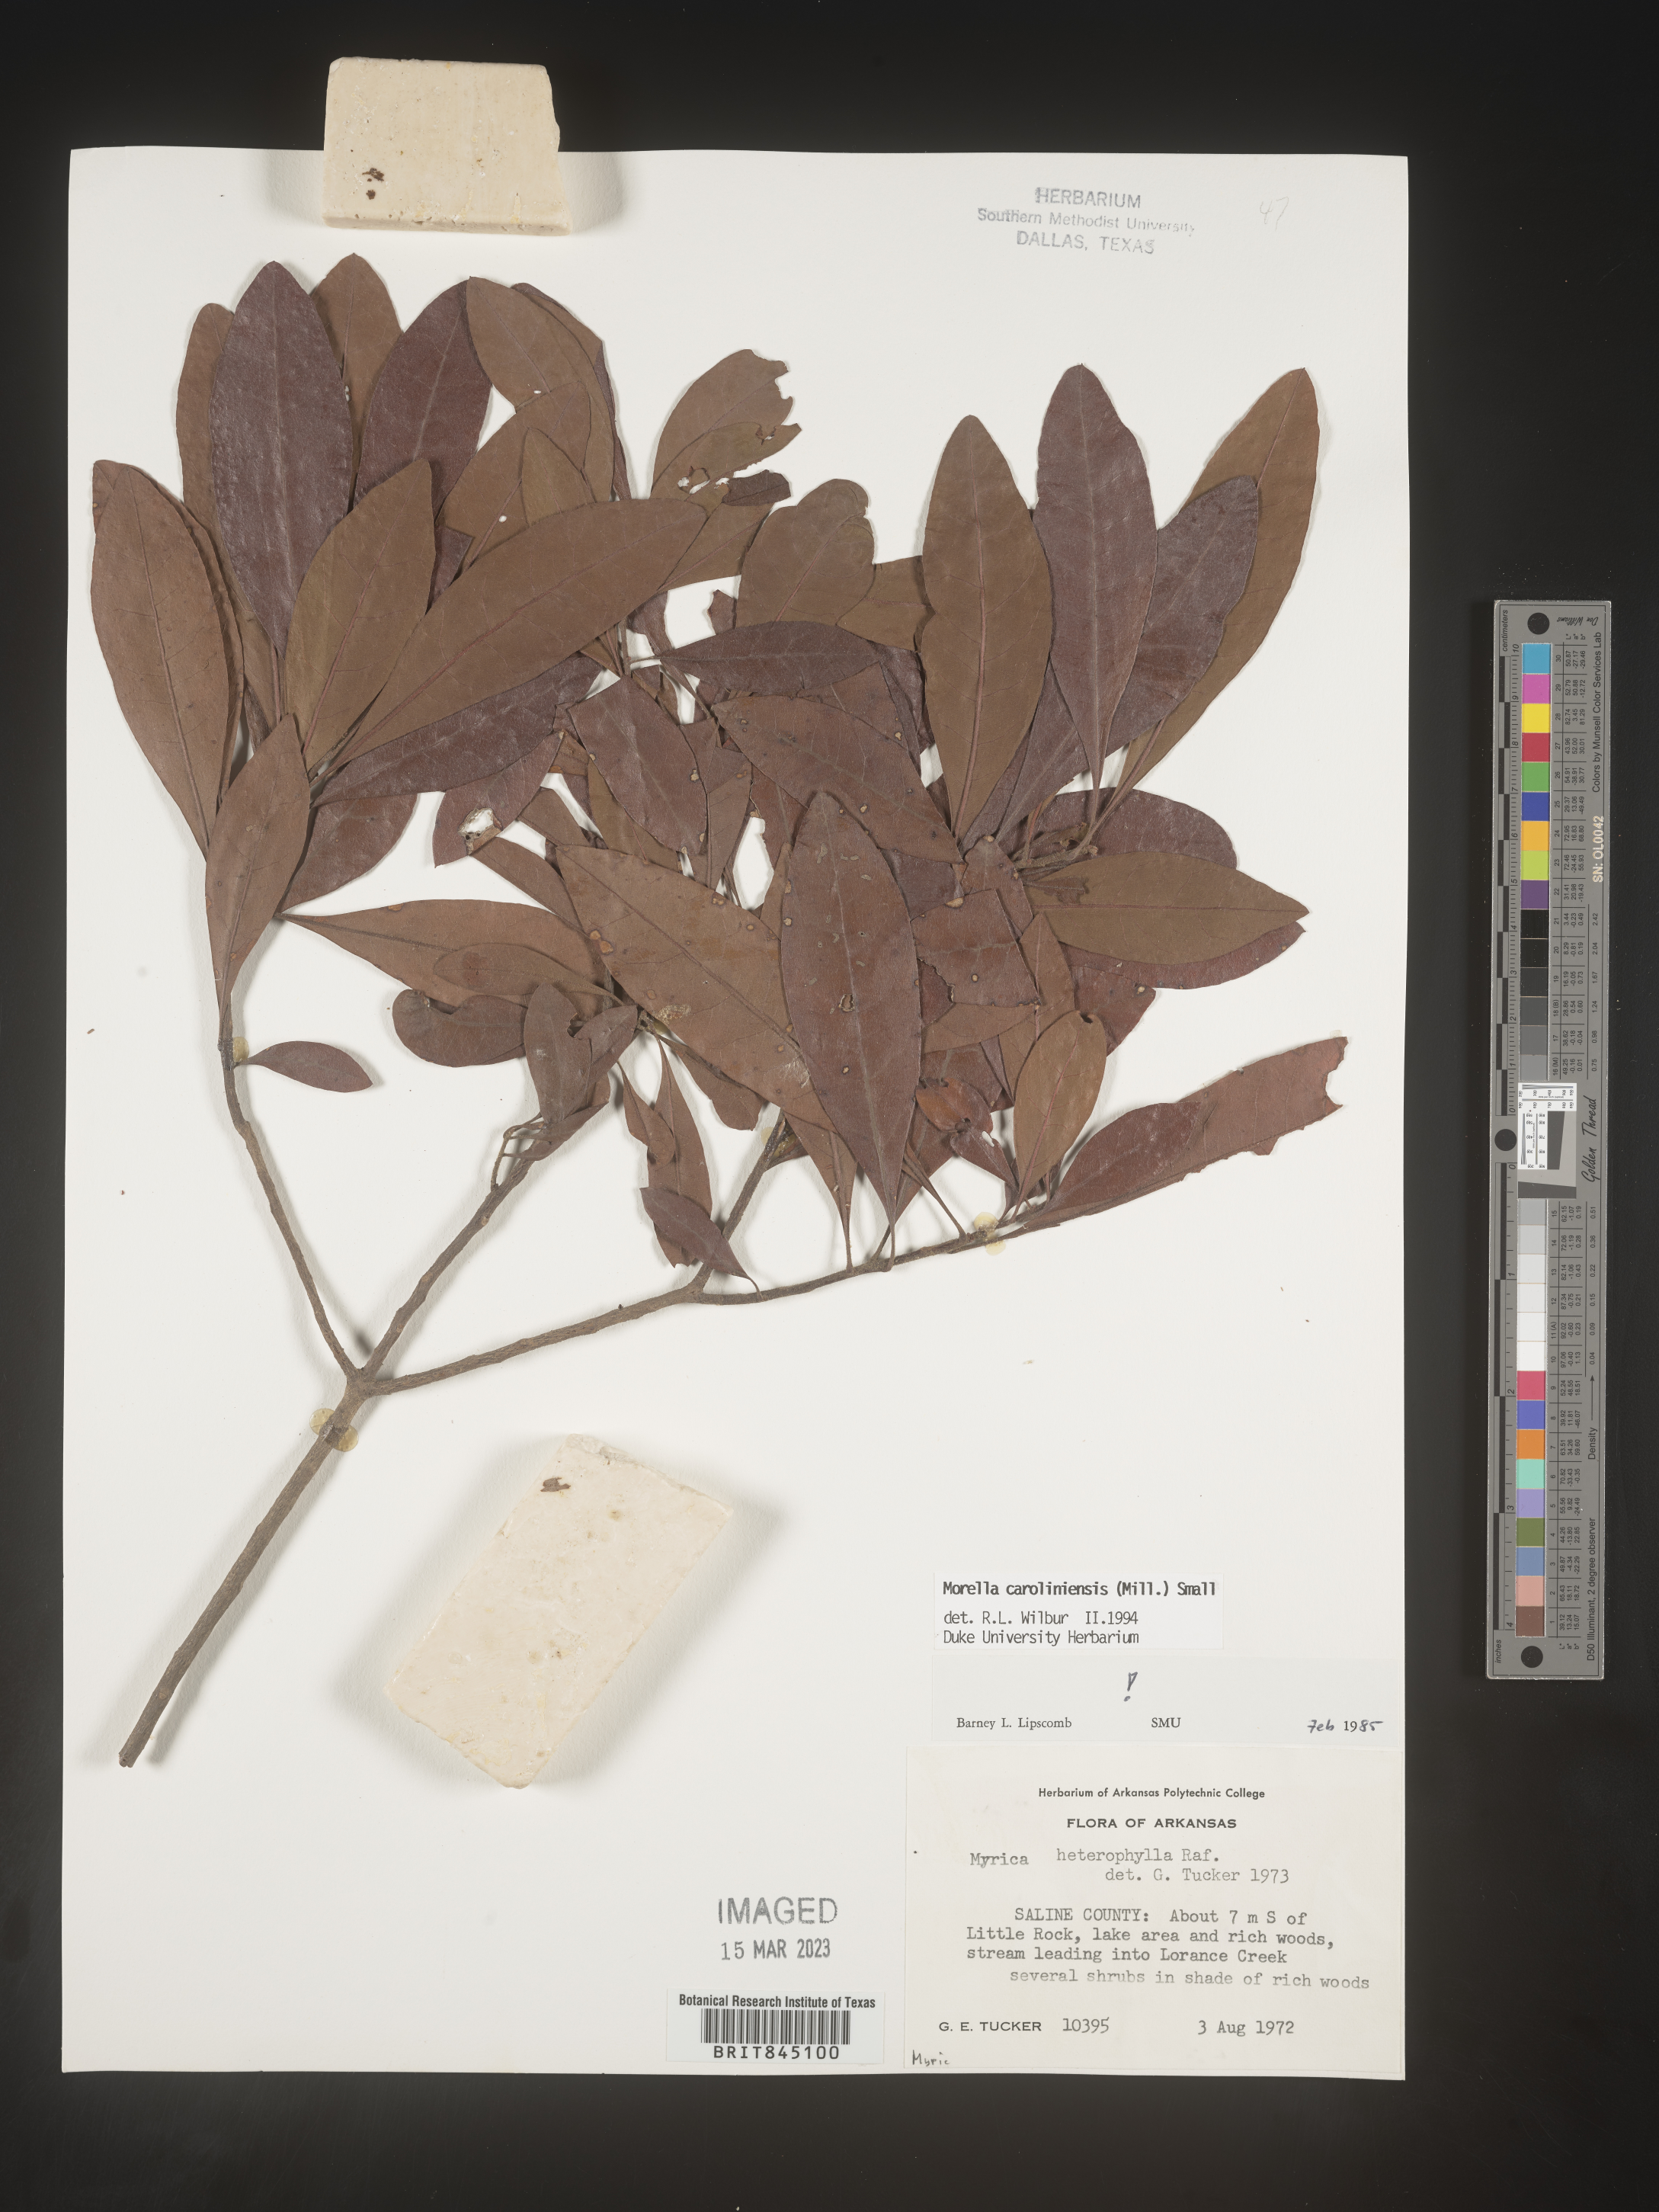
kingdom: Plantae
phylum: Tracheophyta
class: Magnoliopsida
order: Fagales
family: Myricaceae
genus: Morella
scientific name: Morella caroliniensis
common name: Evergreen bayberry
